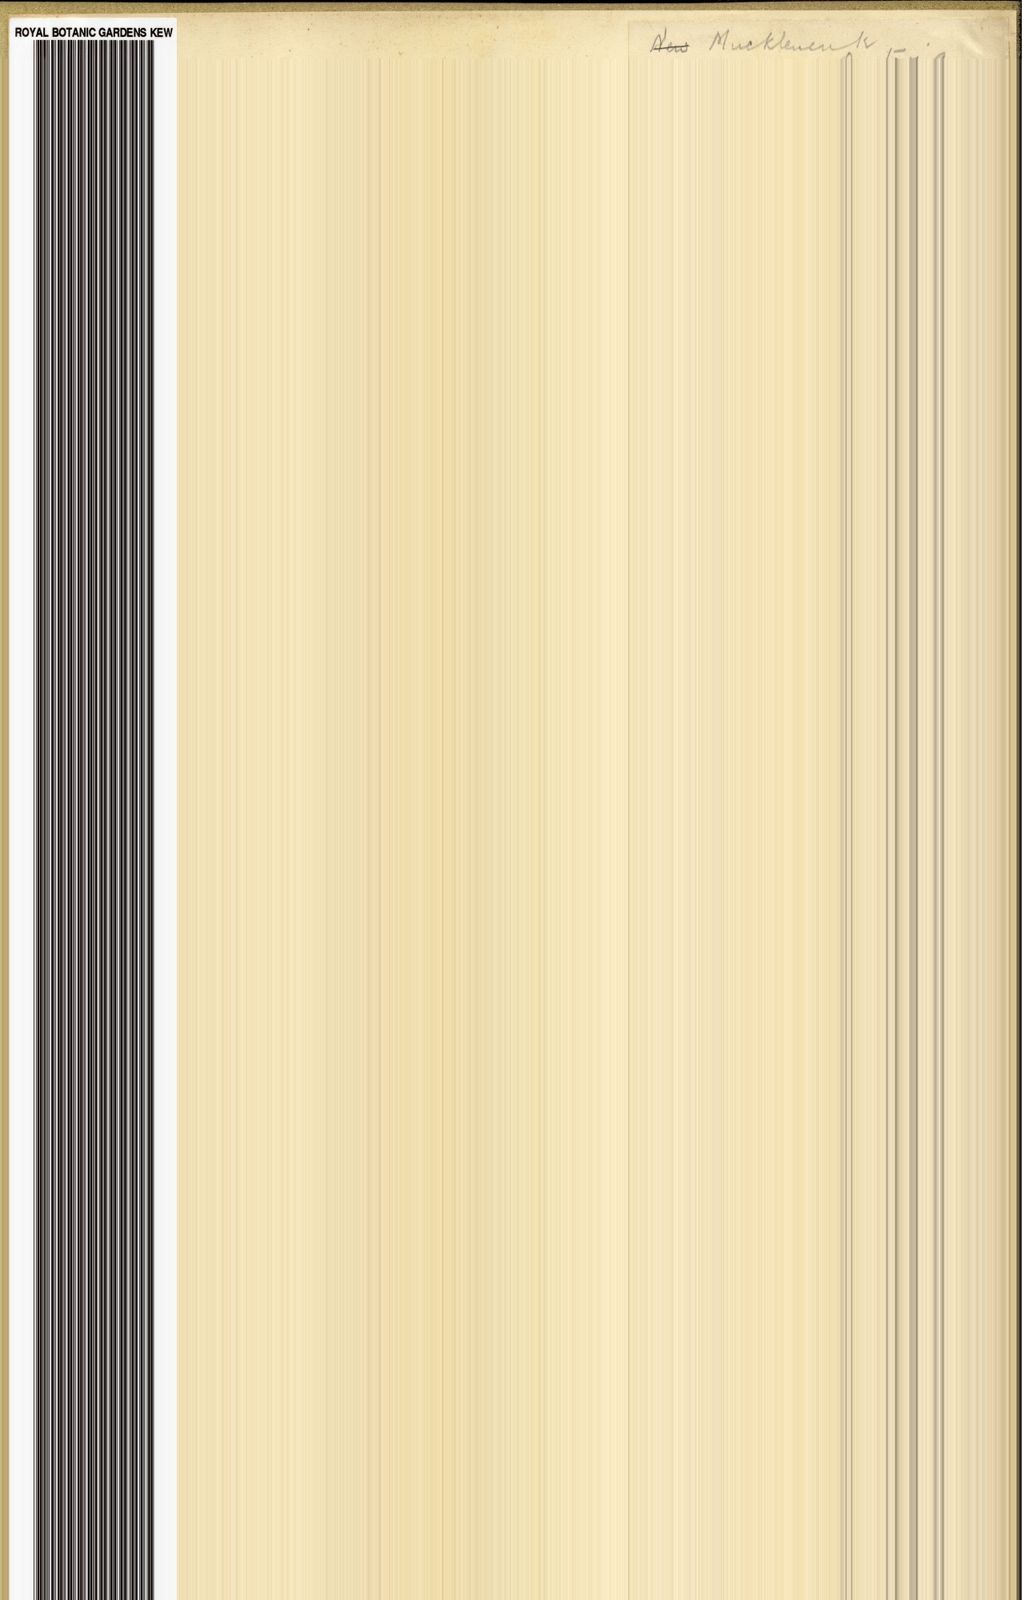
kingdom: Plantae
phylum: Tracheophyta
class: Liliopsida
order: Asparagales
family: Hypoxidaceae
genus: Hypoxis
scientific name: Hypoxis interjecta
